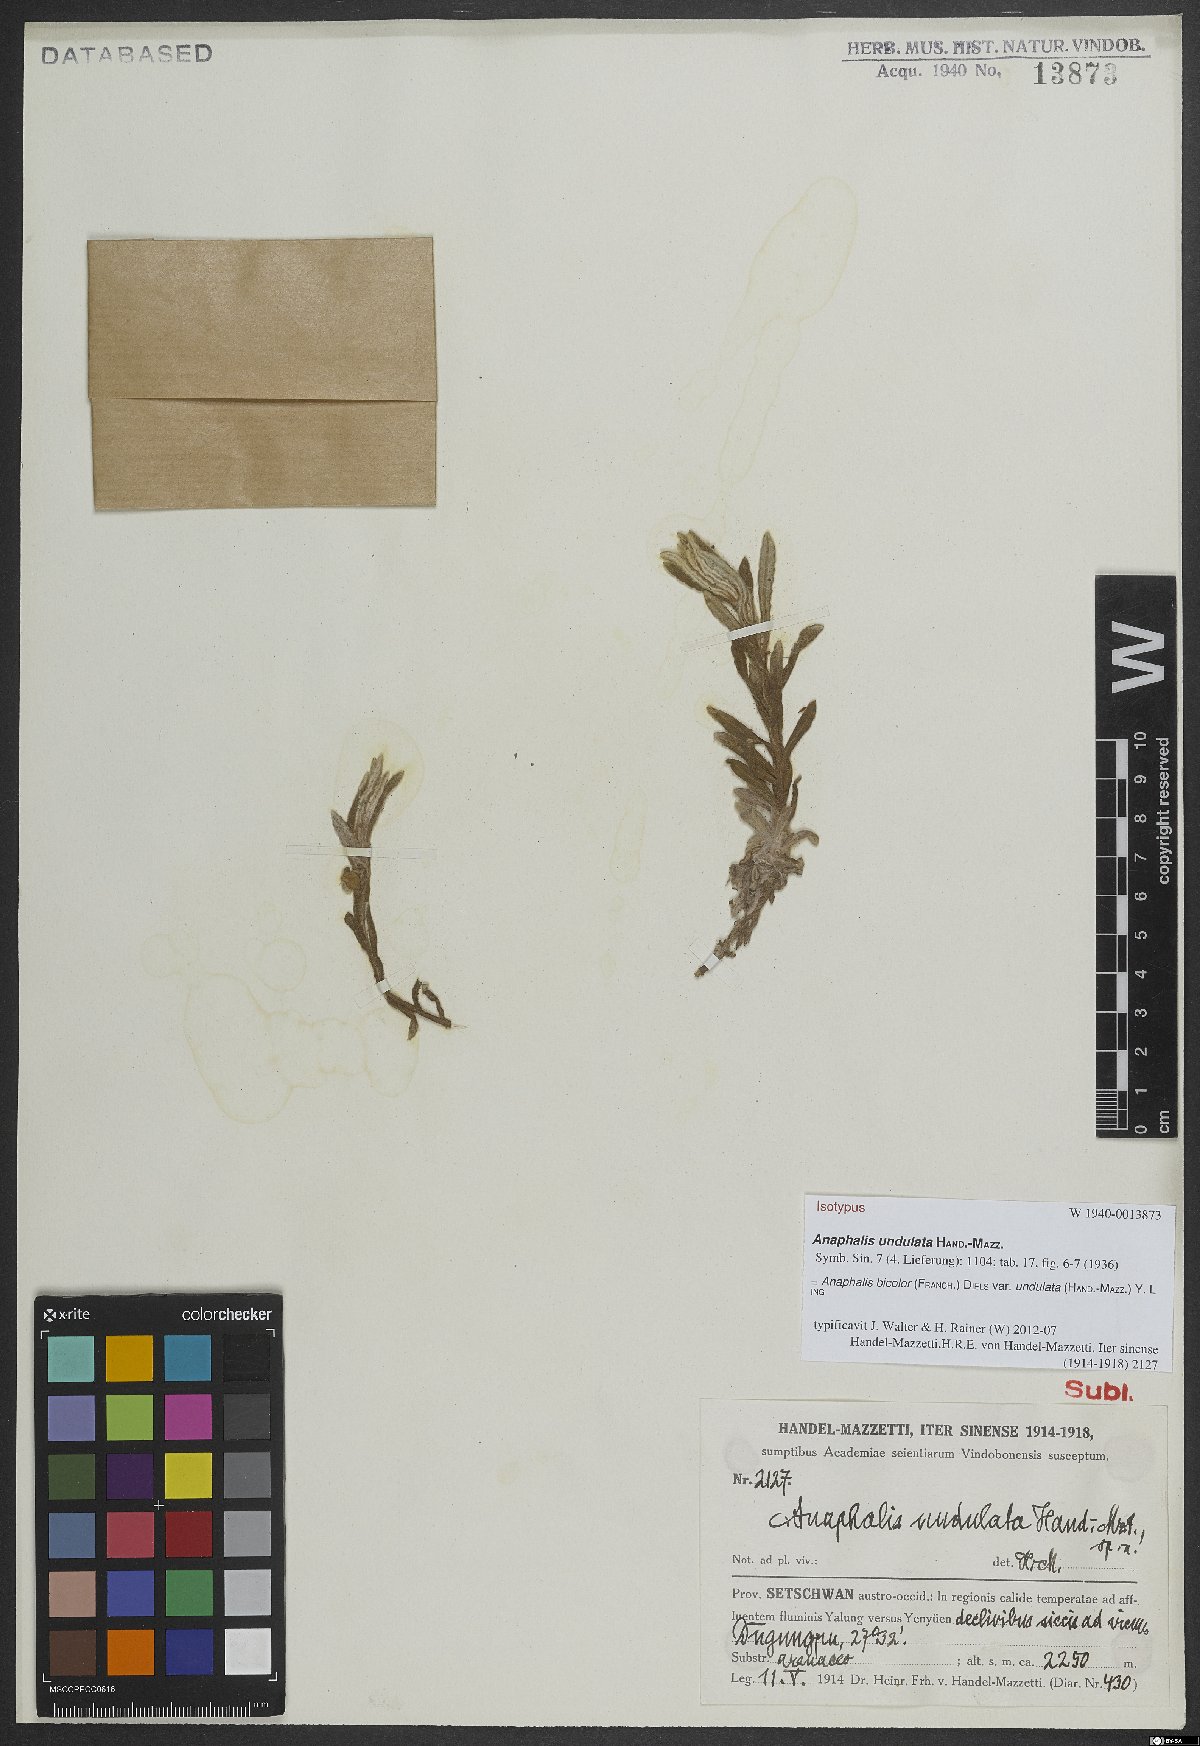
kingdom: Plantae
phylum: Tracheophyta
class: Magnoliopsida
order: Asterales
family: Asteraceae
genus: Anaphalis
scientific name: Anaphalis bicolor
